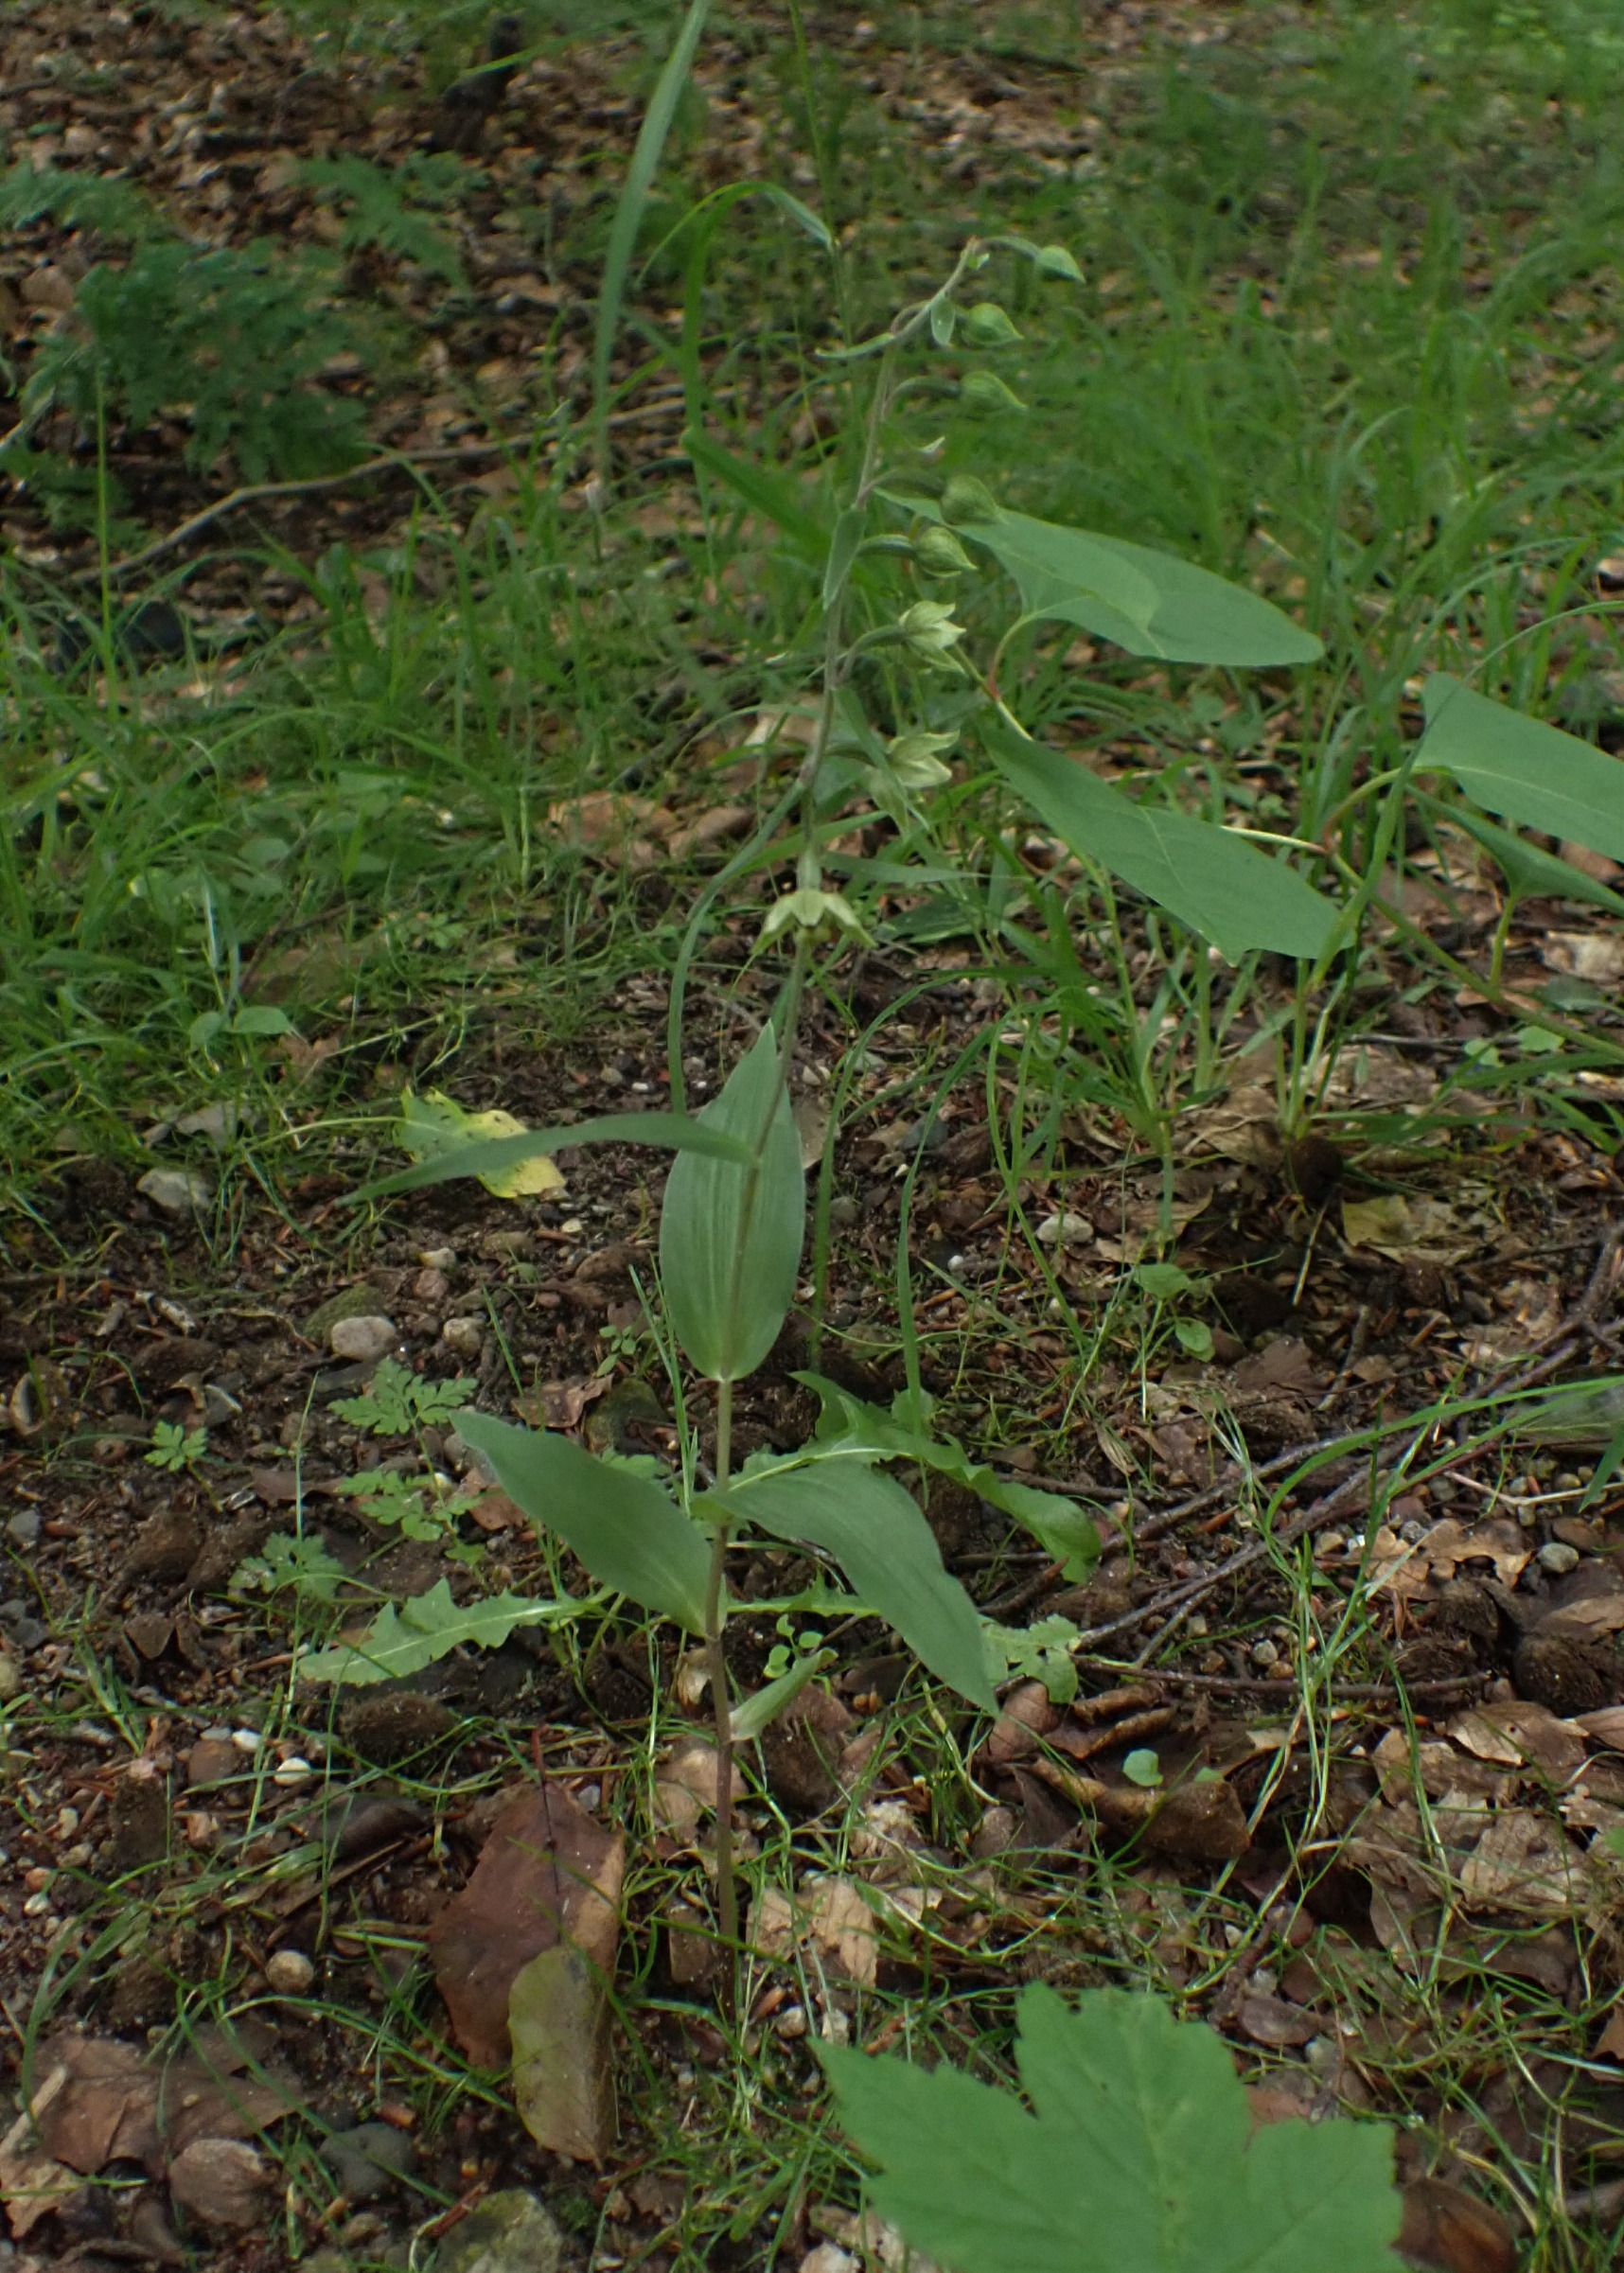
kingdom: Plantae
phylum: Tracheophyta
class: Liliopsida
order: Asparagales
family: Orchidaceae
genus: Epipactis
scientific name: Epipactis helleborine
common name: Skov-hullæbe
